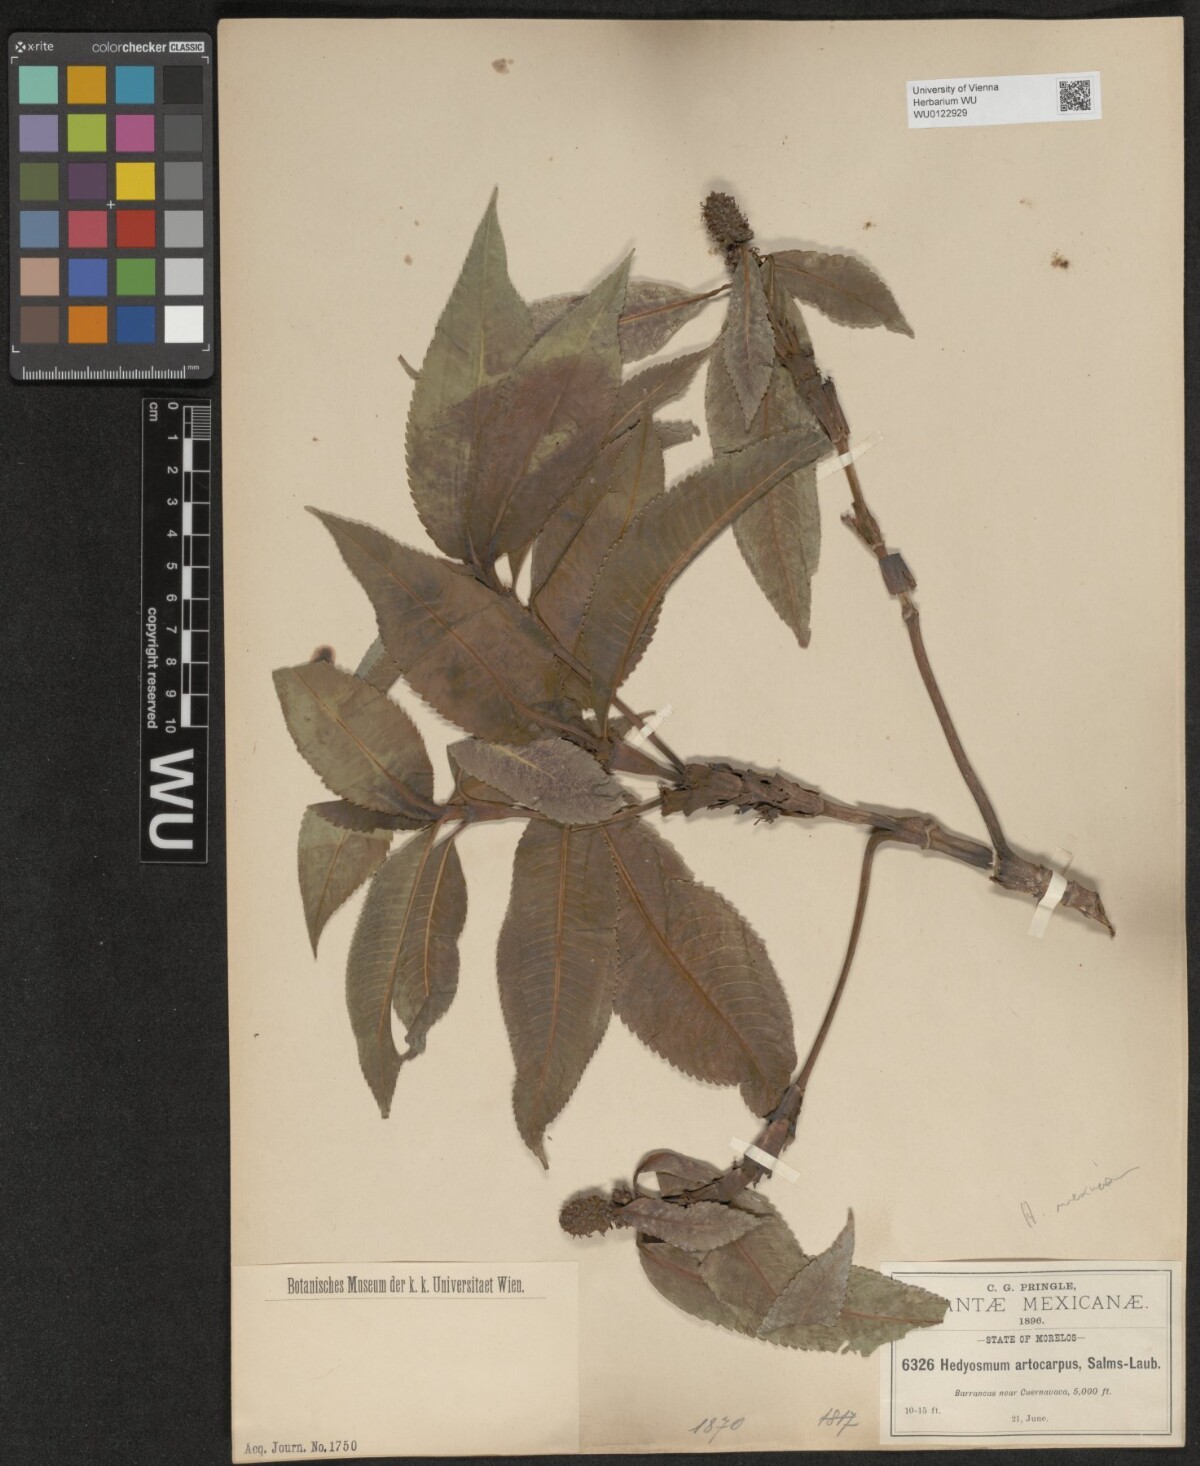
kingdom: Plantae
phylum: Tracheophyta
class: Magnoliopsida
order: Chloranthales
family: Chloranthaceae
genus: Hedyosmum
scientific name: Hedyosmum mexicanum
